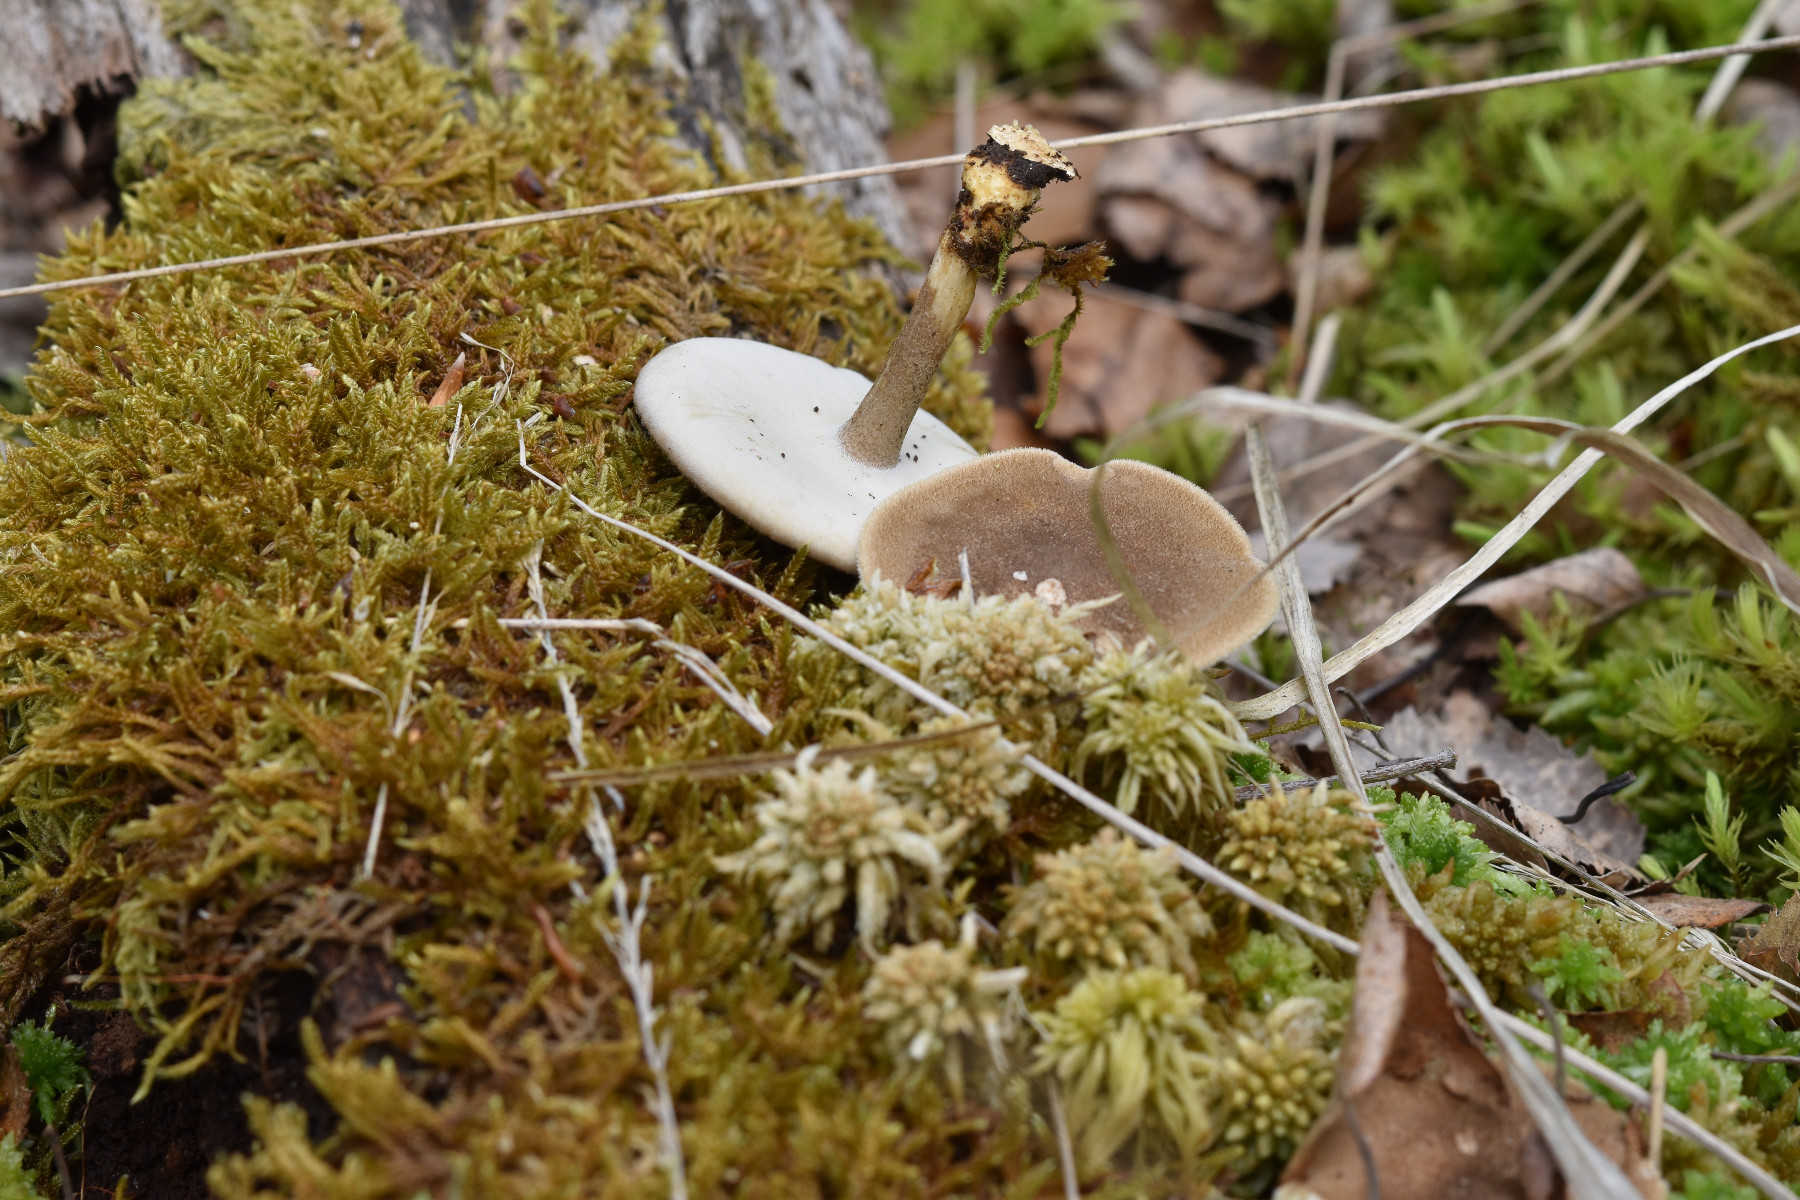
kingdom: Fungi
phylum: Basidiomycota
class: Agaricomycetes
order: Polyporales
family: Polyporaceae
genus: Lentinus
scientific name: Lentinus substrictus
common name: forårs-stilkporesvamp
